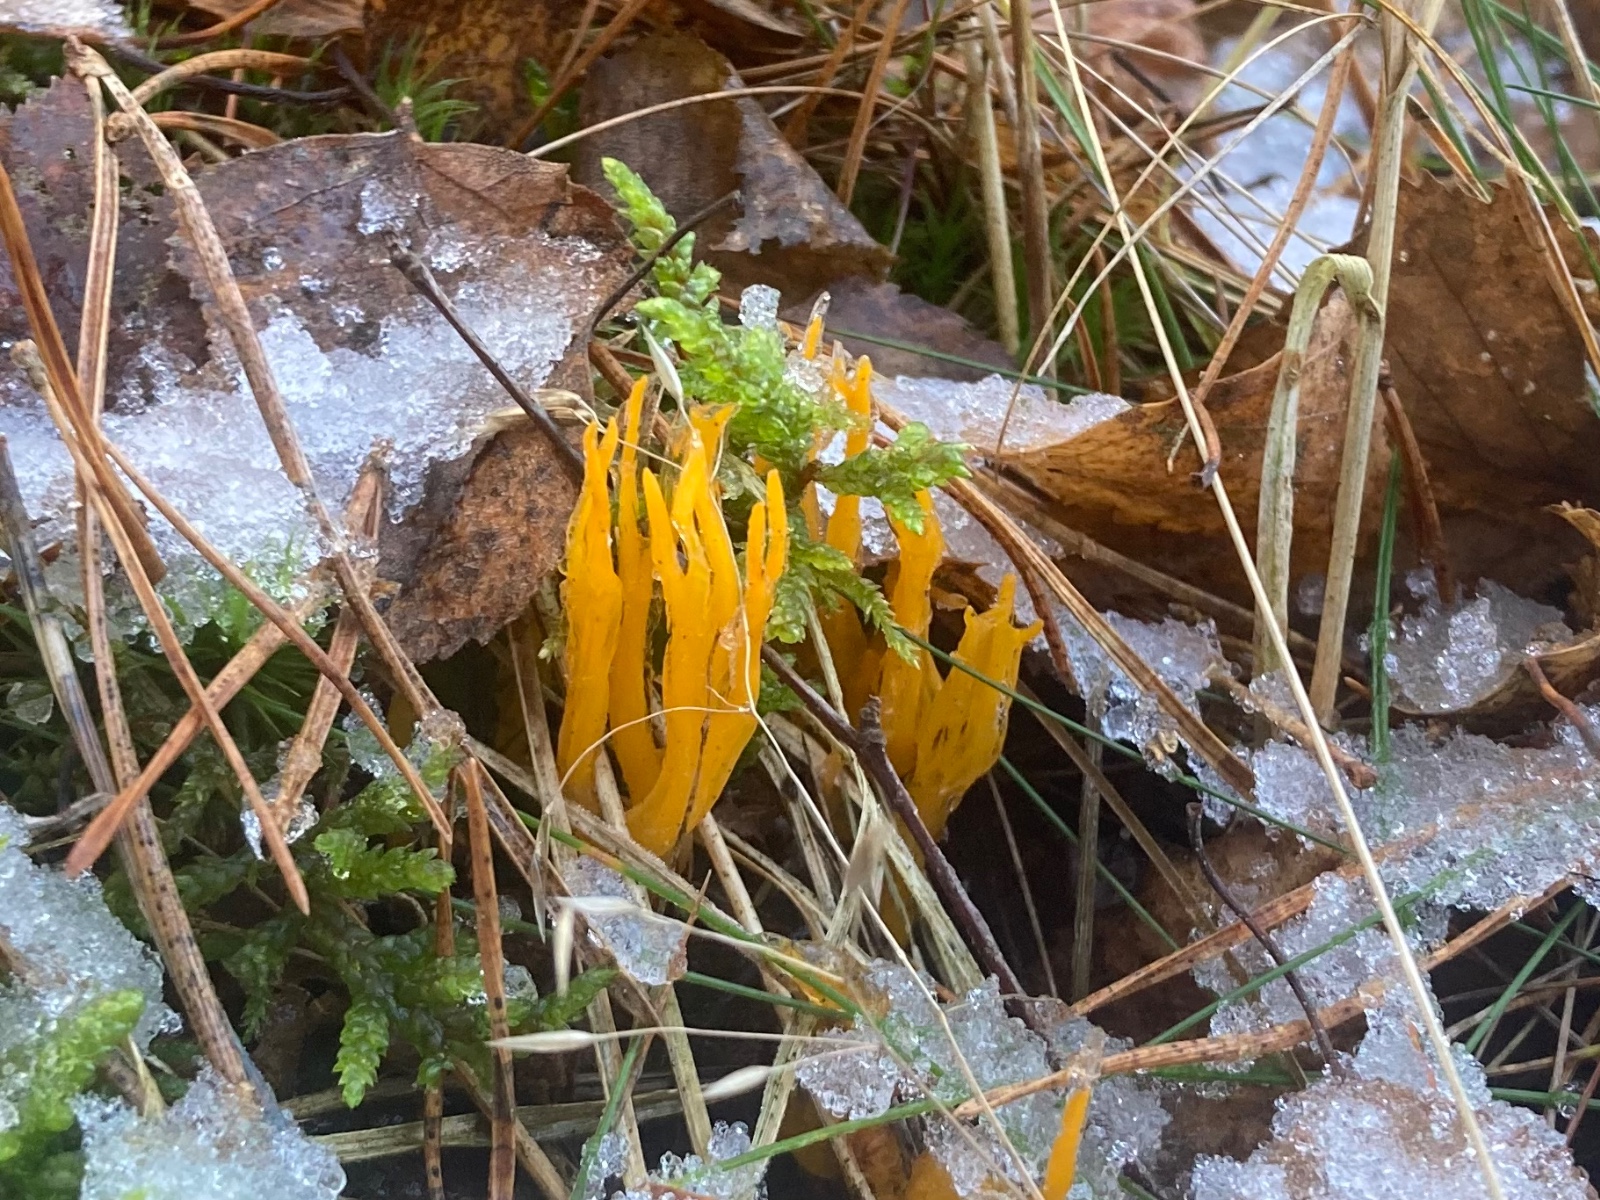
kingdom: Fungi
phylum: Basidiomycota
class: Dacrymycetes
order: Dacrymycetales
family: Dacrymycetaceae
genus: Calocera
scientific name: Calocera viscosa
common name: almindelig guldgaffel
